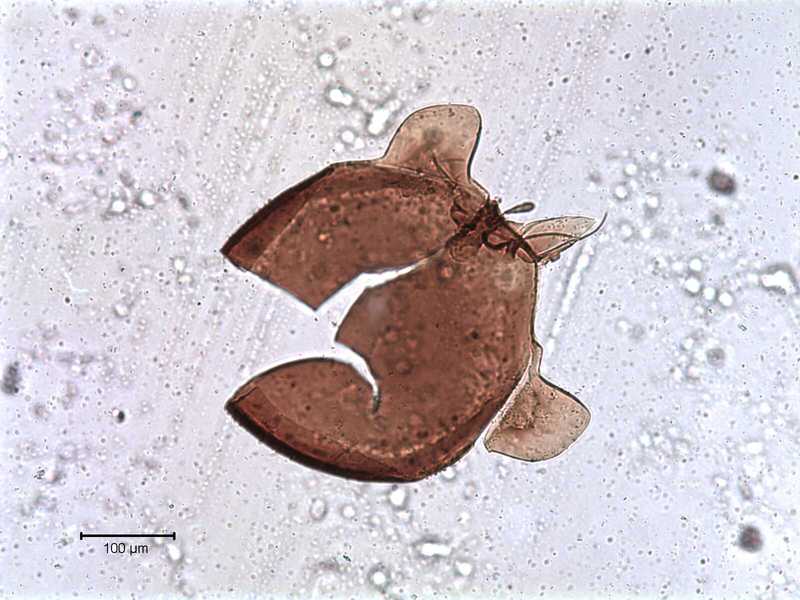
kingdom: Animalia
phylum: Arthropoda
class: Arachnida
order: Sarcoptiformes
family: Tegoribatidae
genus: Plakoribates
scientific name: Plakoribates multicuspidatus
